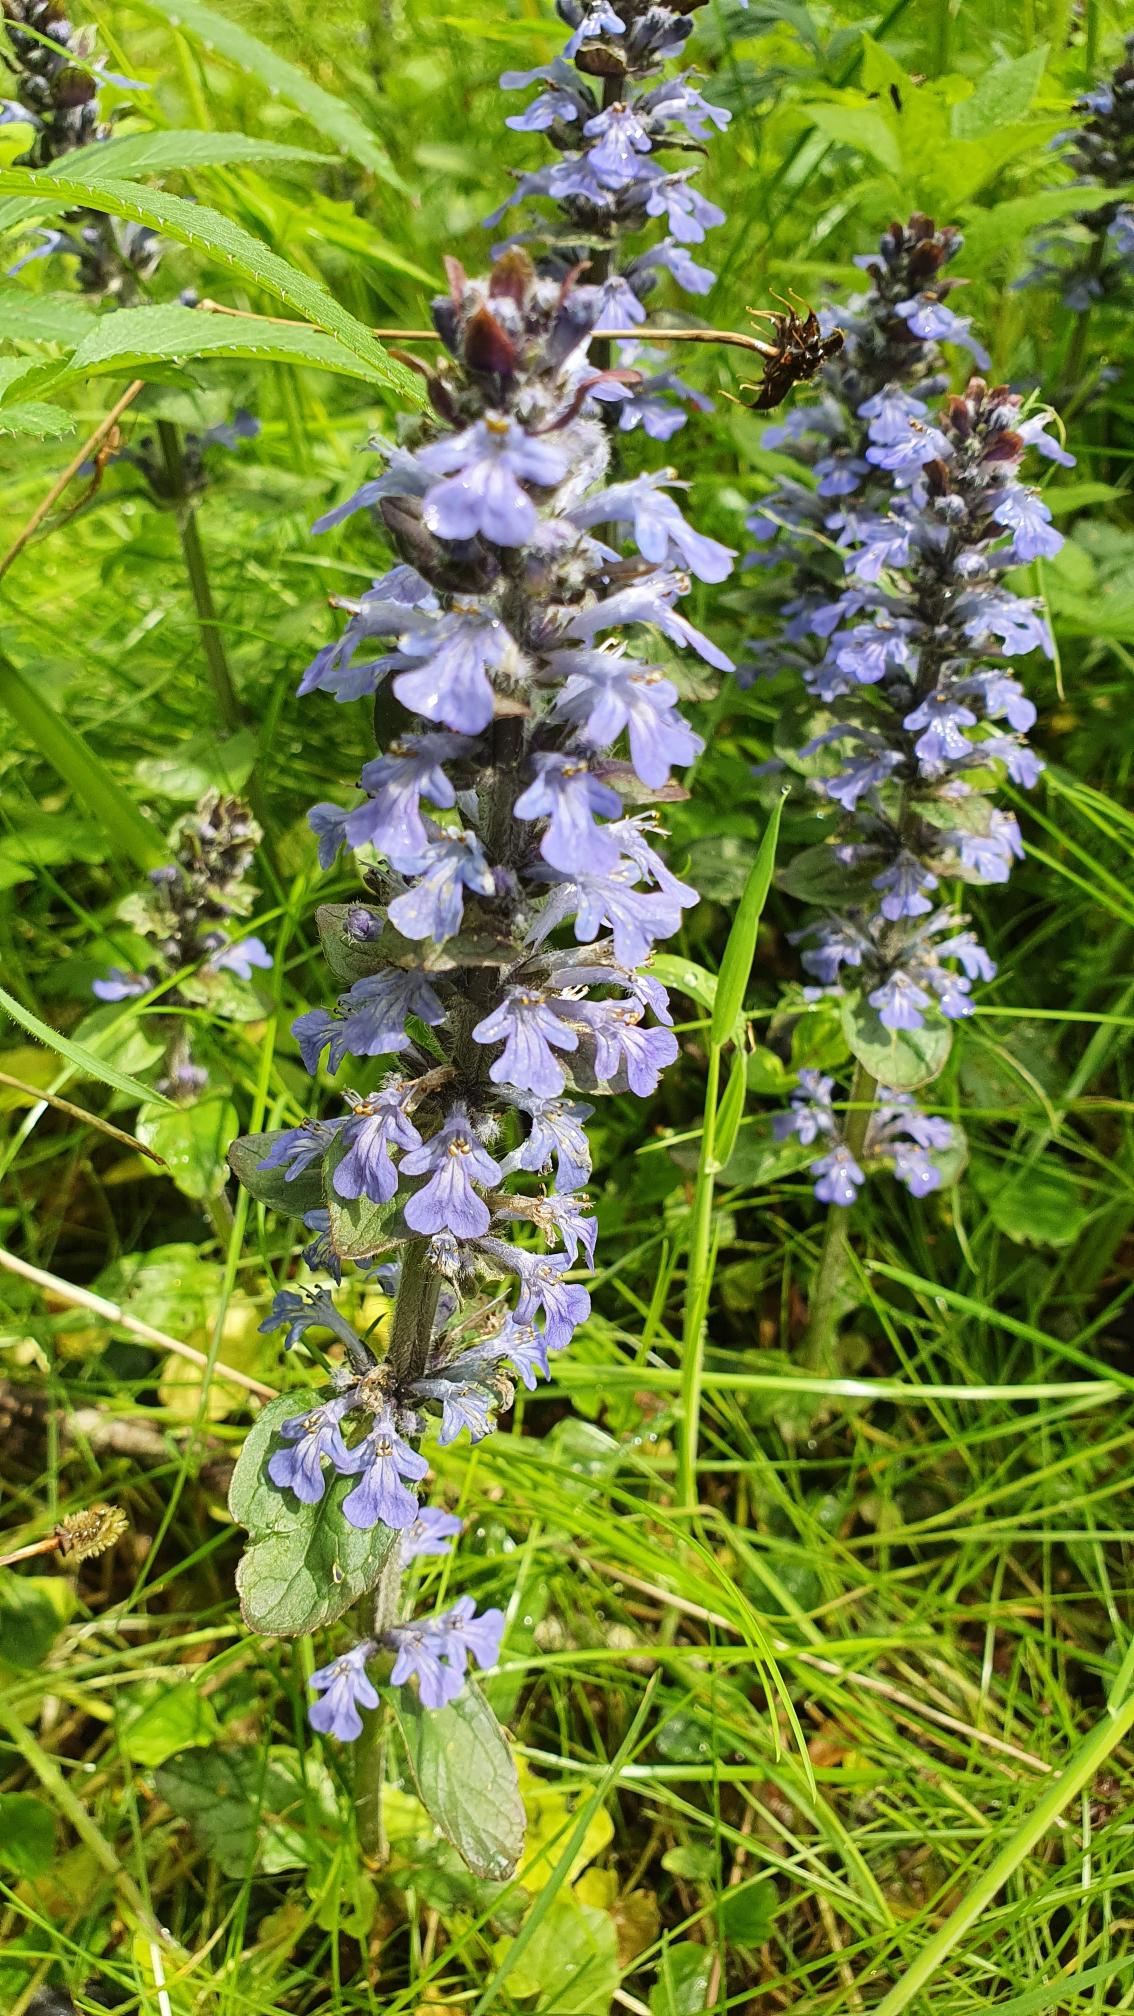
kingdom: Plantae
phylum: Tracheophyta
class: Magnoliopsida
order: Lamiales
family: Lamiaceae
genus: Ajuga
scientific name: Ajuga reptans
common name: Krybende læbeløs
